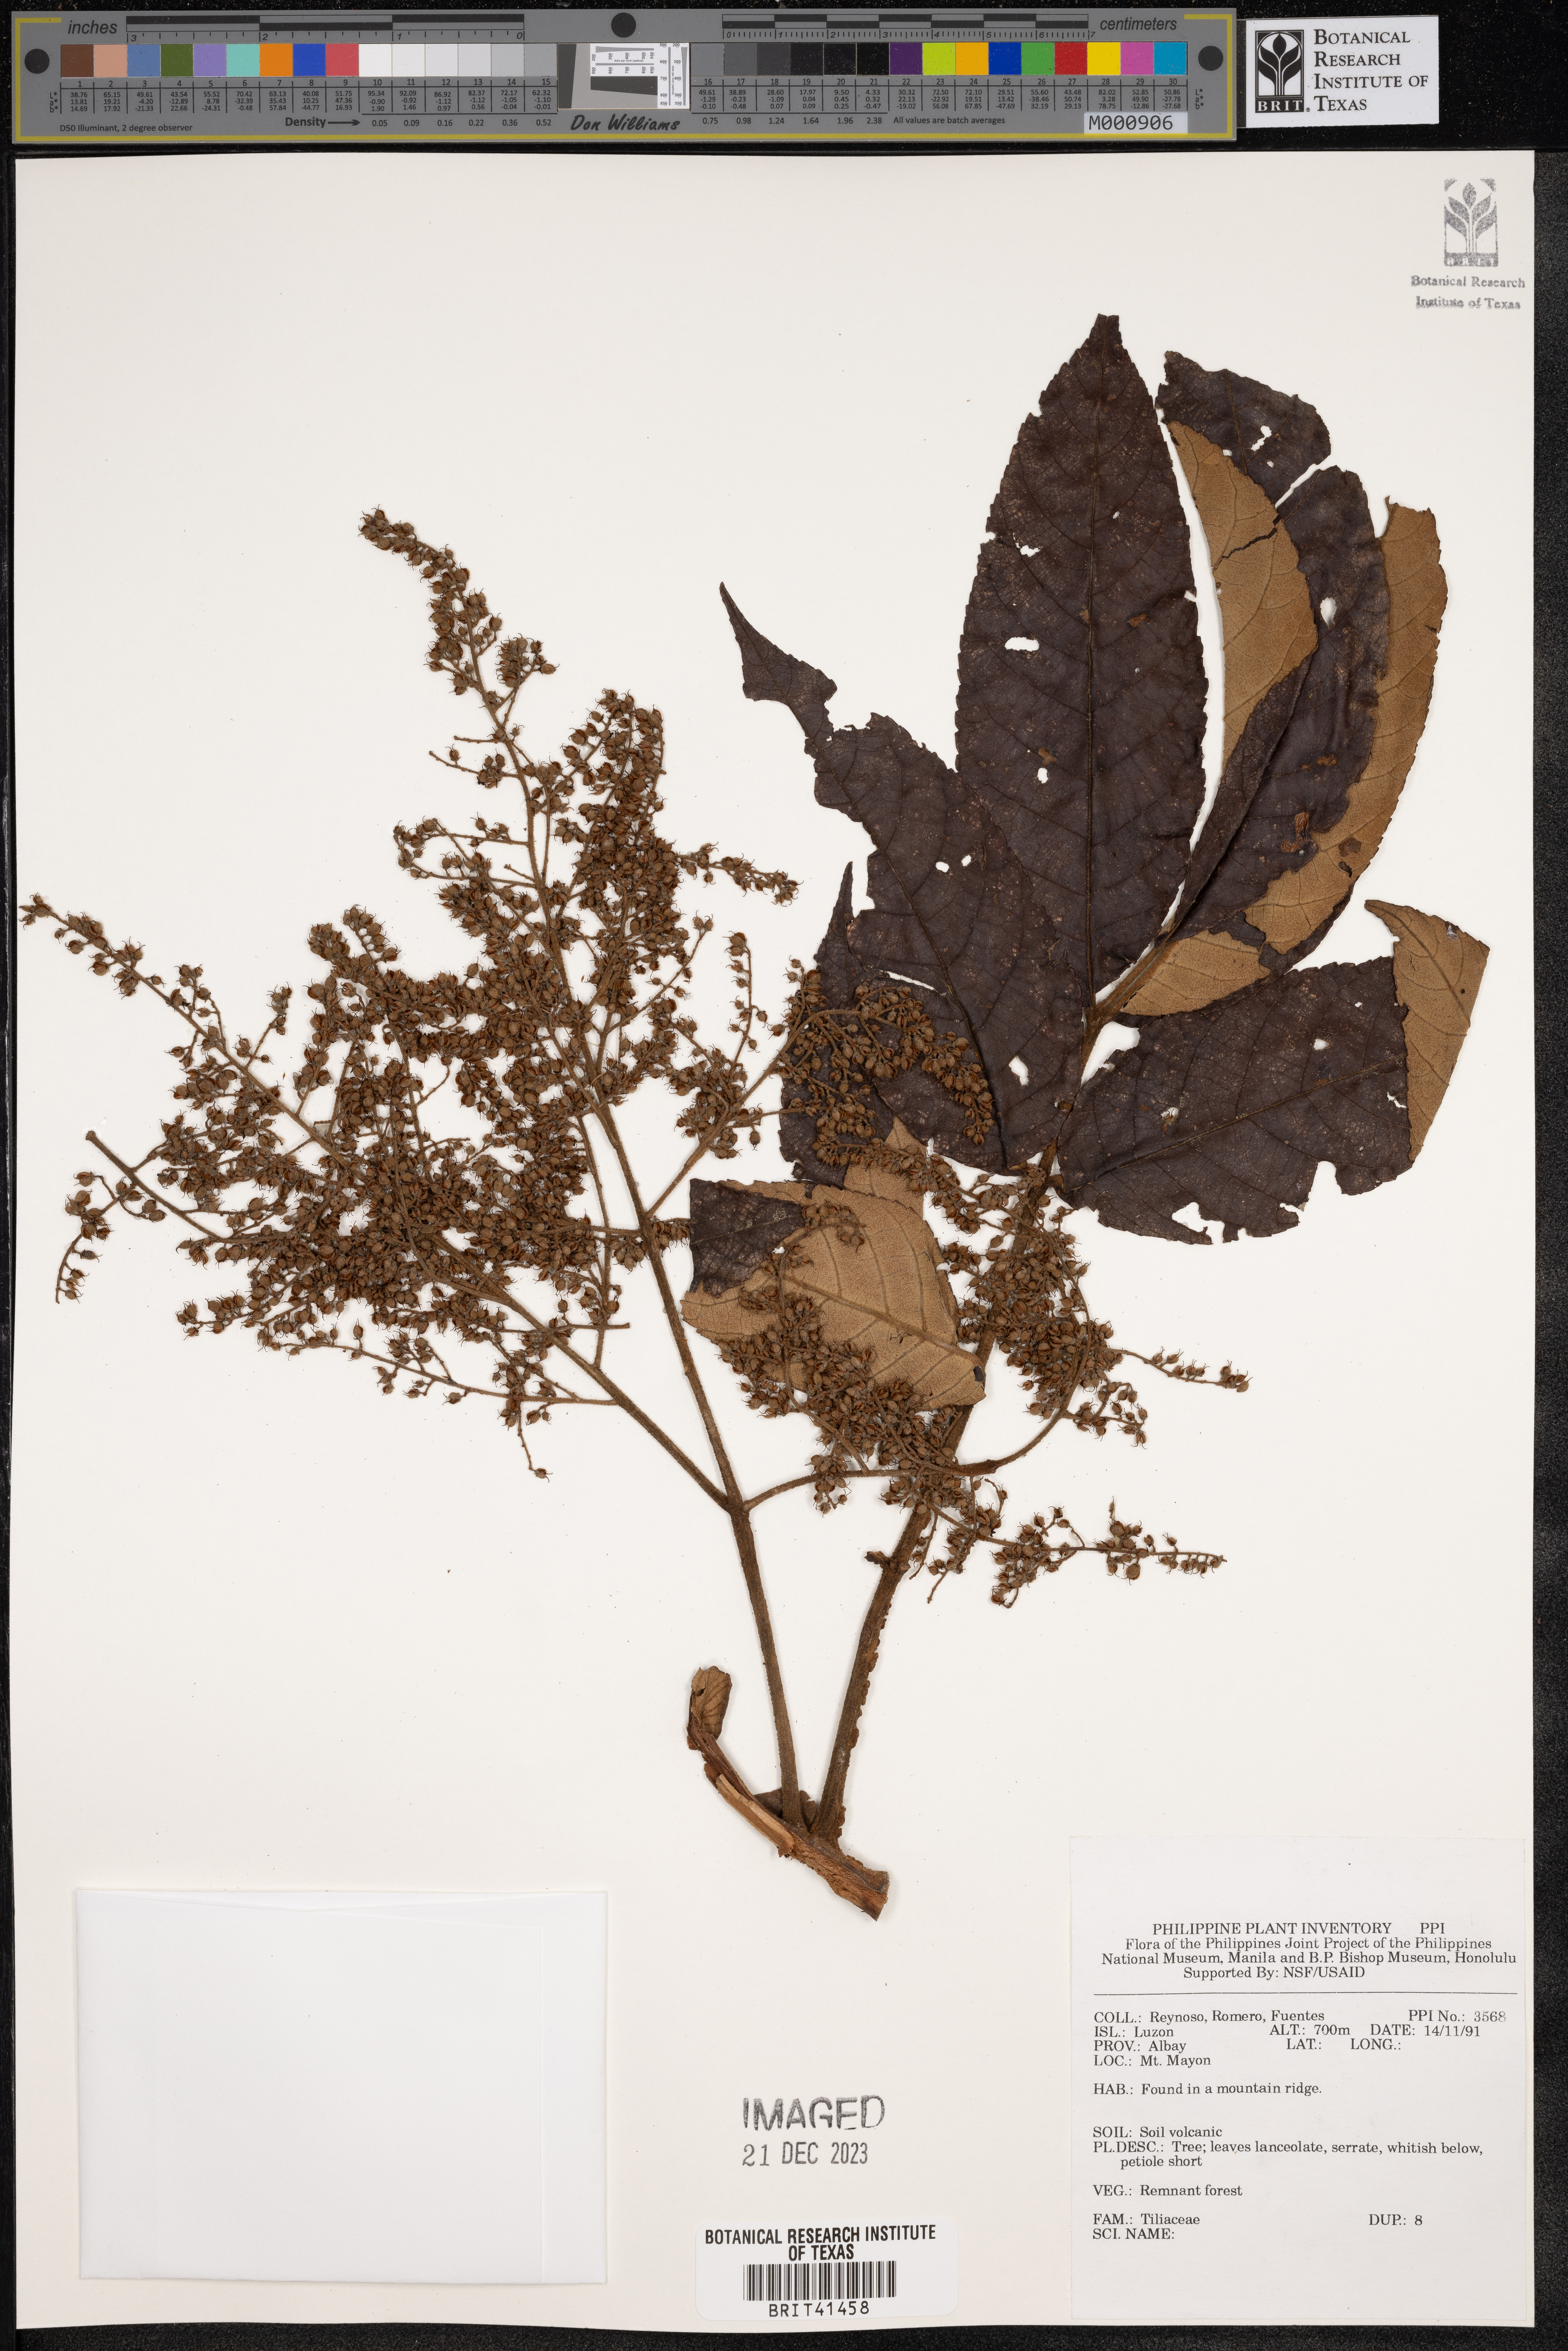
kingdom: Plantae
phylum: Tracheophyta
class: Magnoliopsida
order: Malvales
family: Tiliaceae
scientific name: Tiliaceae
